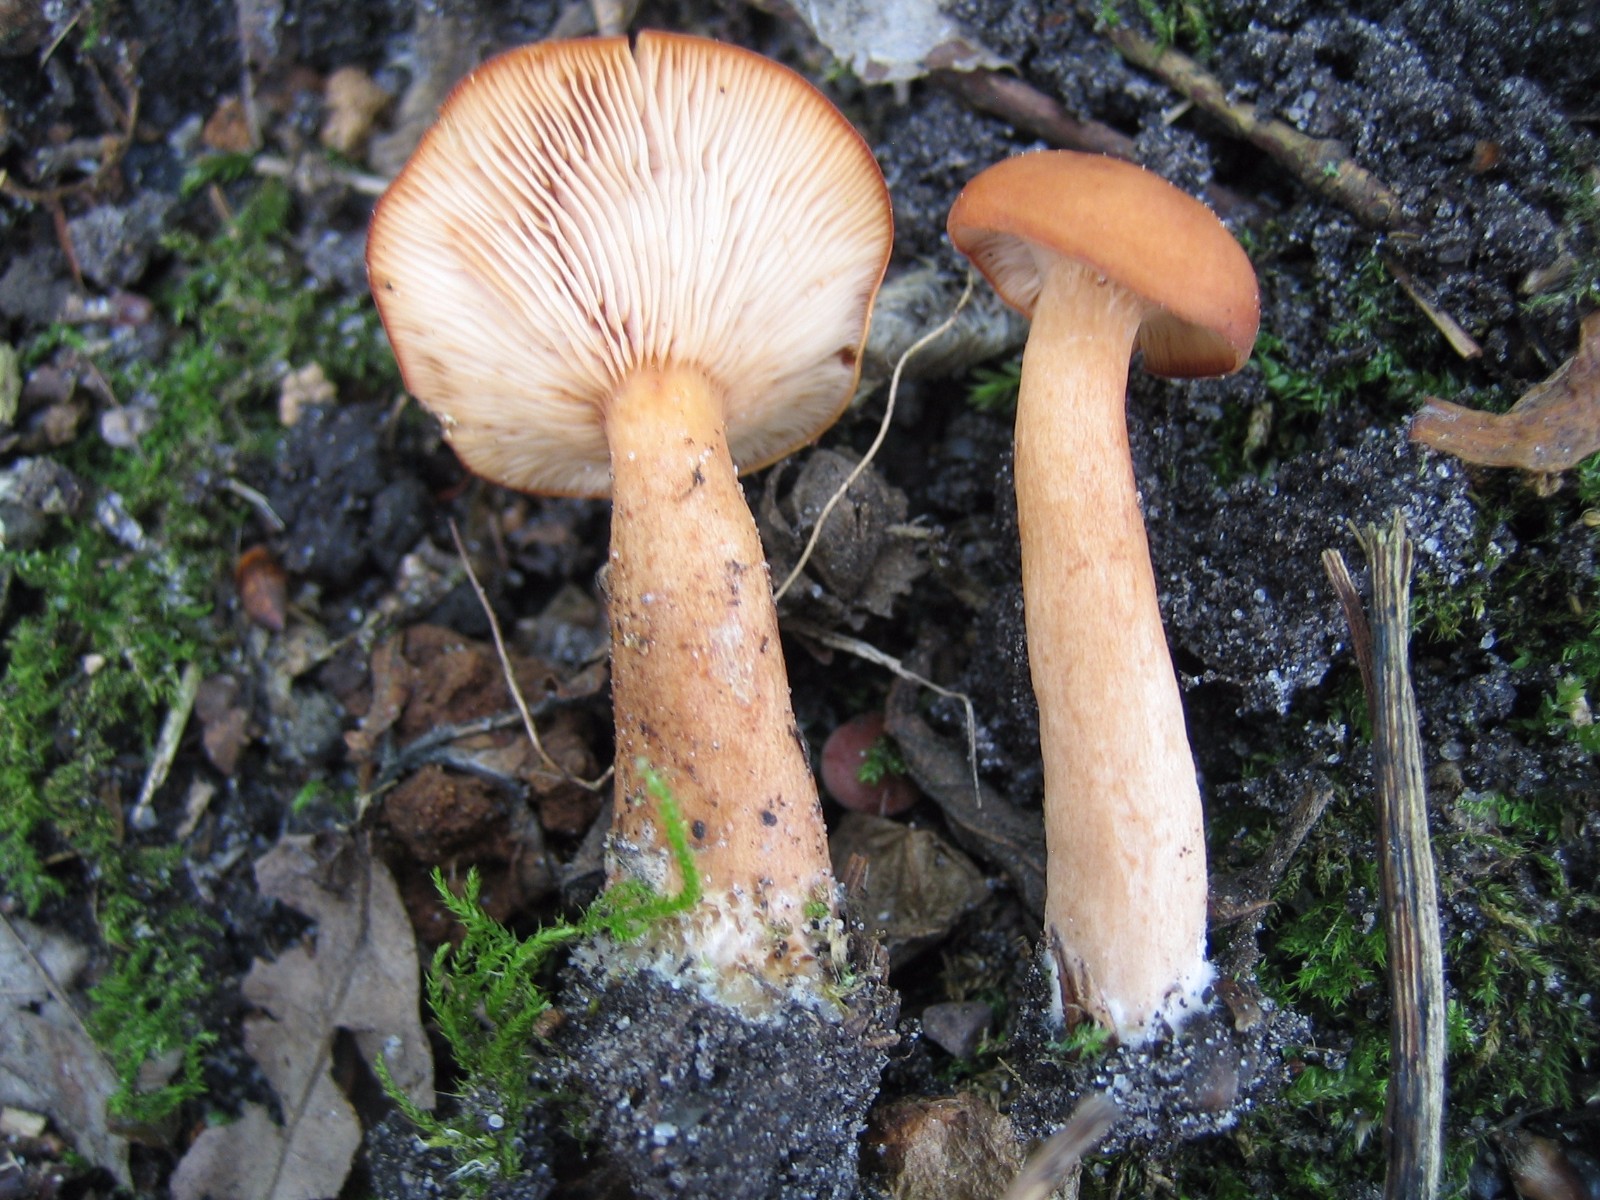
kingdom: Fungi
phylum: Basidiomycota
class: Agaricomycetes
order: Russulales
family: Russulaceae
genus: Lactarius
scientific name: Lactarius
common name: mælkehat
